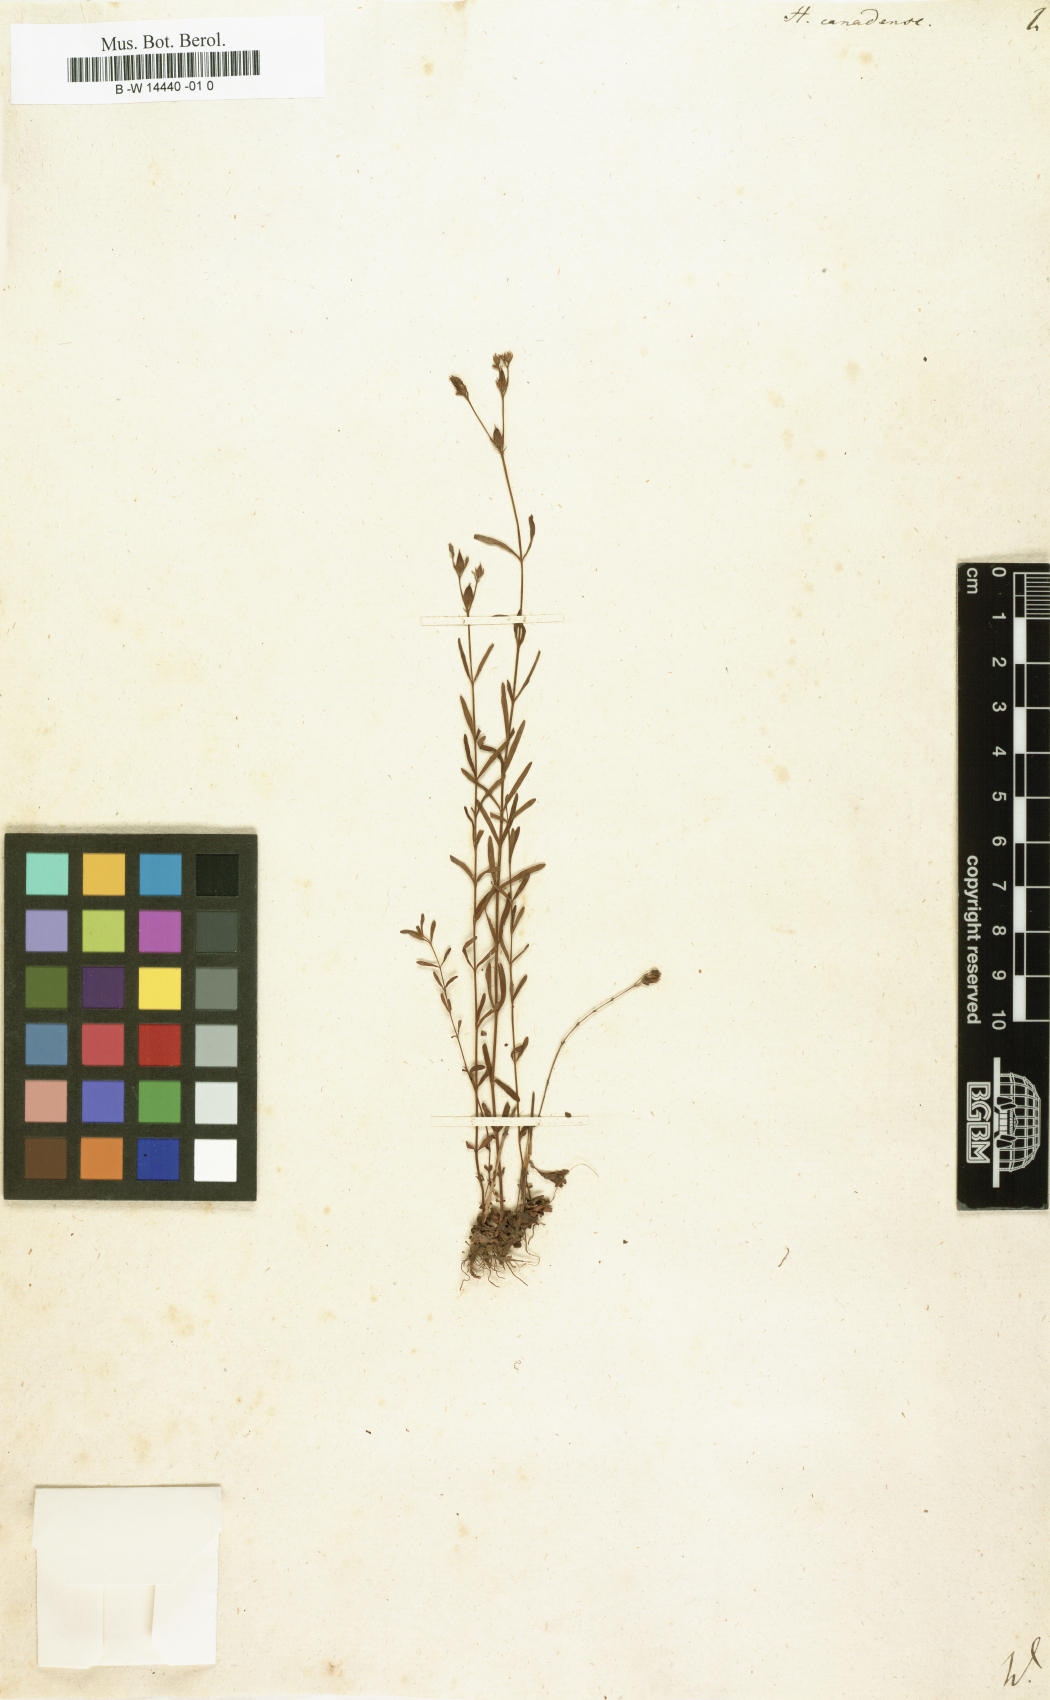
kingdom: Plantae
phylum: Tracheophyta
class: Magnoliopsida
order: Malpighiales
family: Hypericaceae
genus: Hypericum
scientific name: Hypericum canadense
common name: Irish st. john's-wort
